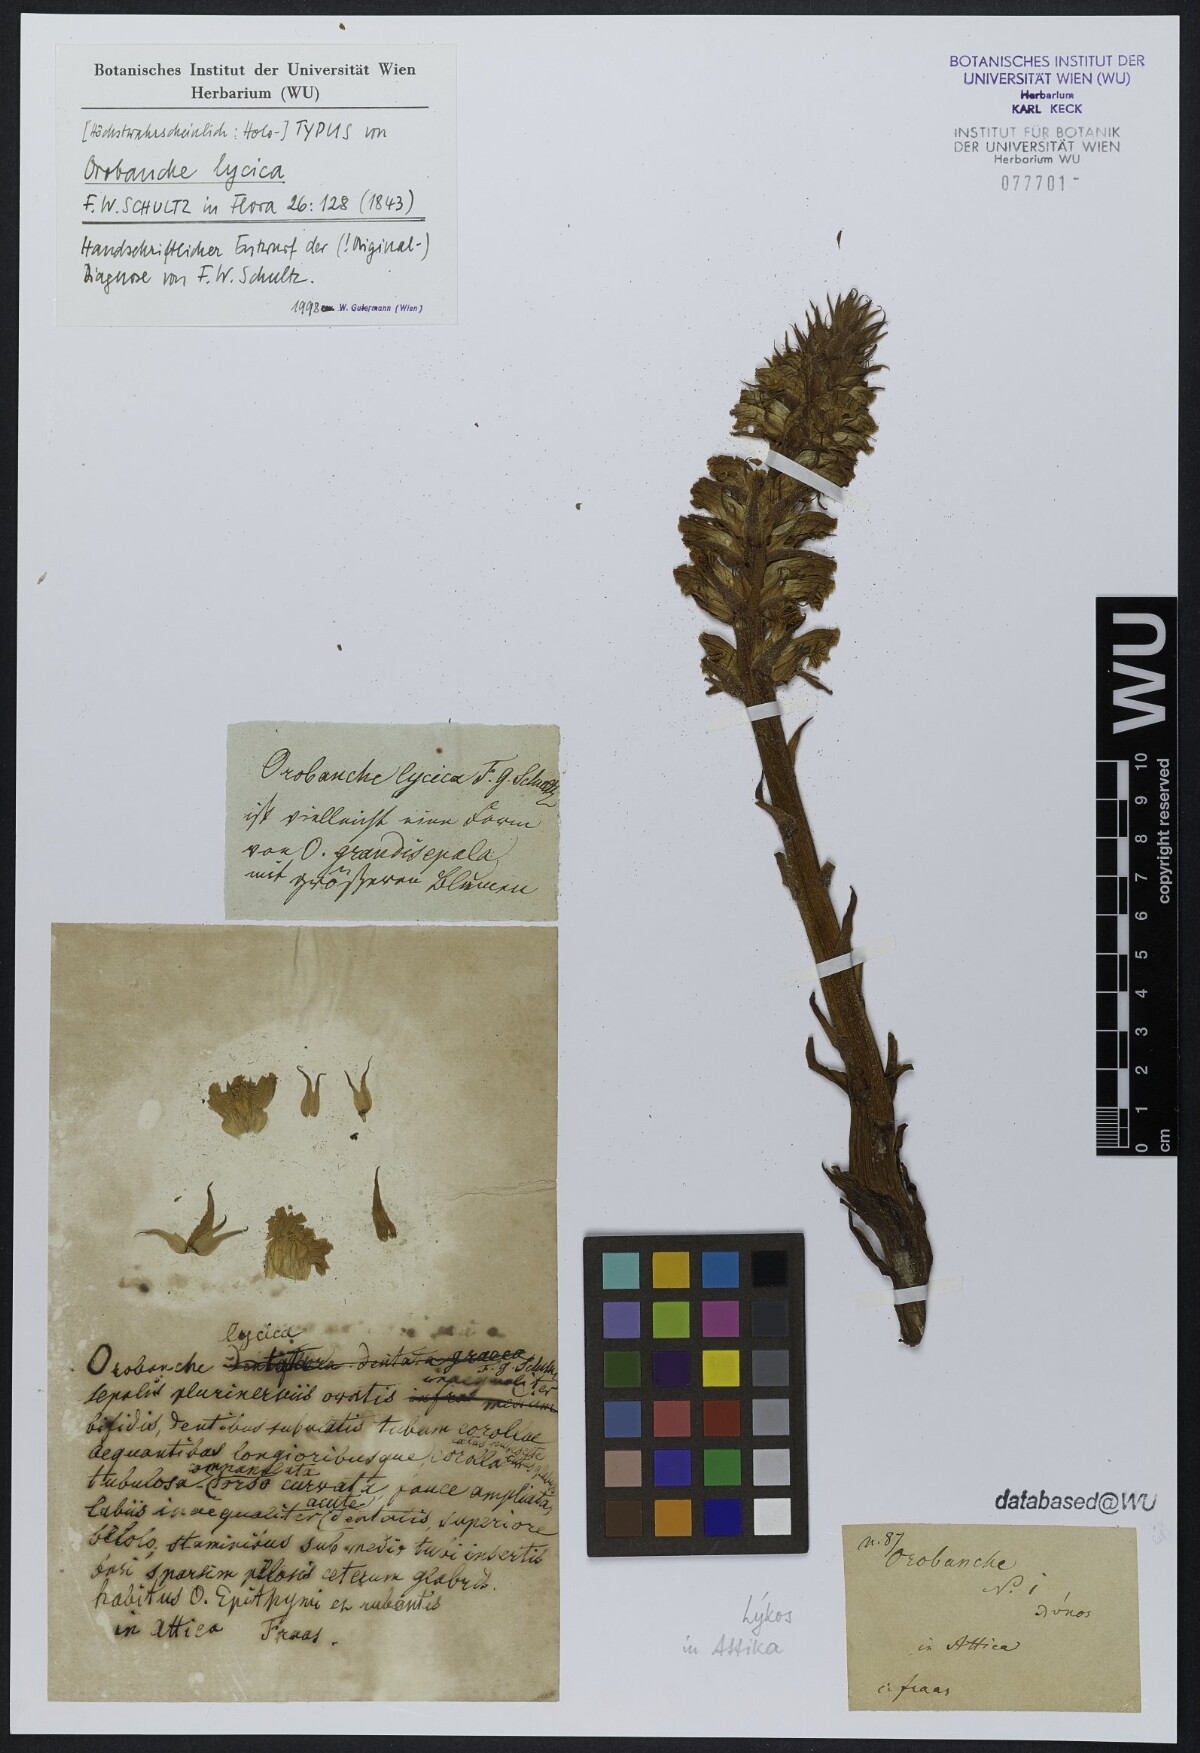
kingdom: Plantae
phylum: Tracheophyta
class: Magnoliopsida
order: Lamiales
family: Orobanchaceae
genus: Orobanche
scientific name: Orobanche alba
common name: Thyme broomrape
